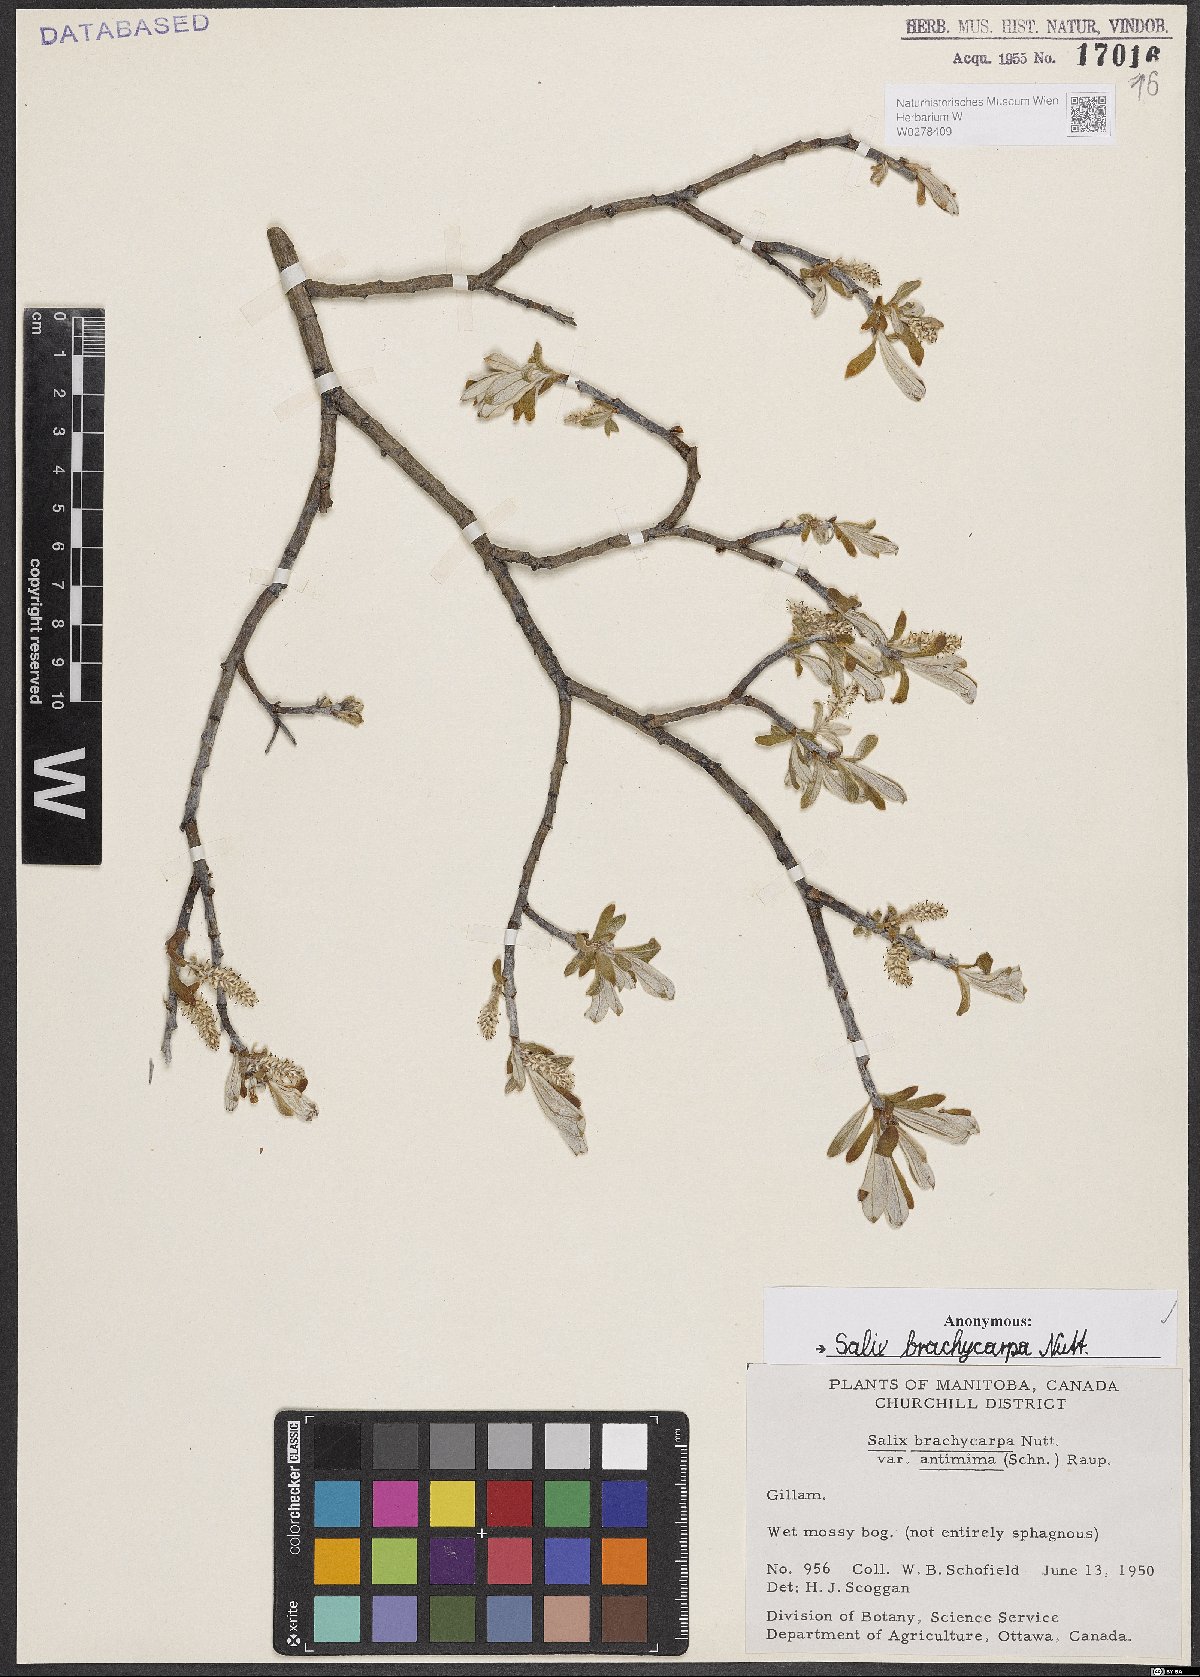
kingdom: Plantae
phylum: Tracheophyta
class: Magnoliopsida
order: Malpighiales
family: Salicaceae
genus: Salix
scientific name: Salix brachycarpa
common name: Barren-ground willow
